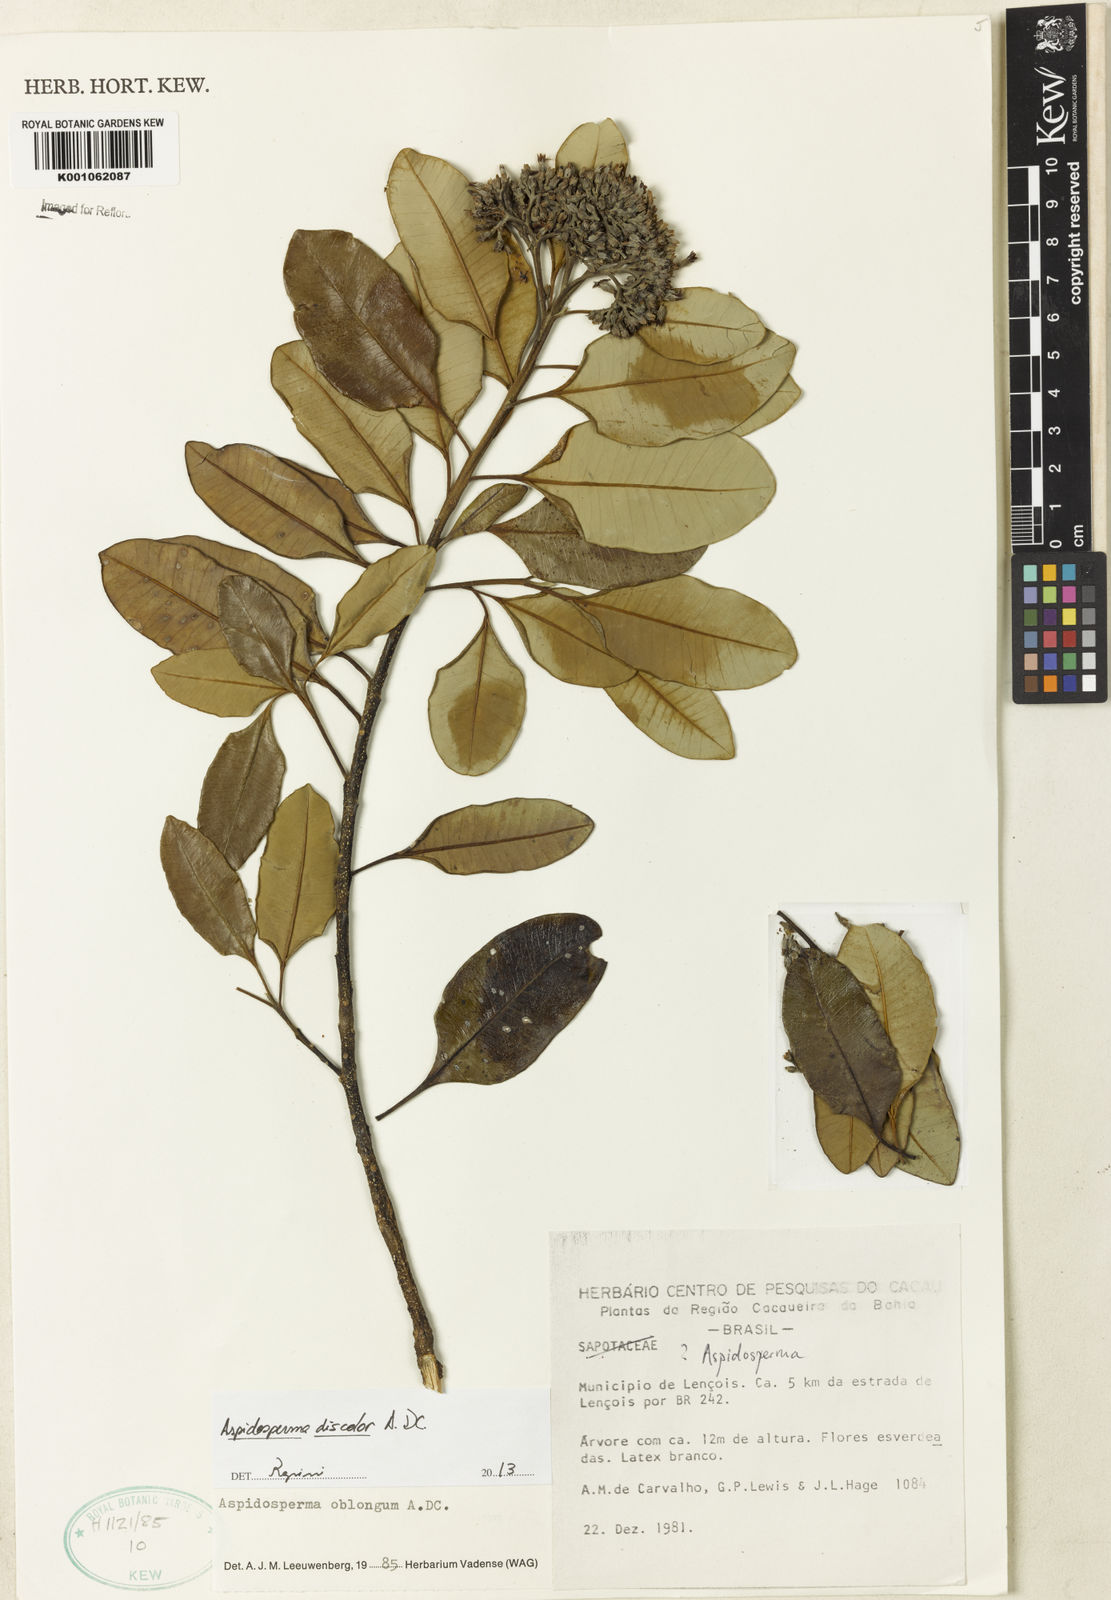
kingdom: Plantae
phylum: Tracheophyta
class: Magnoliopsida
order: Gentianales
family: Apocynaceae
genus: Aspidosperma
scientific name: Aspidosperma discolor
